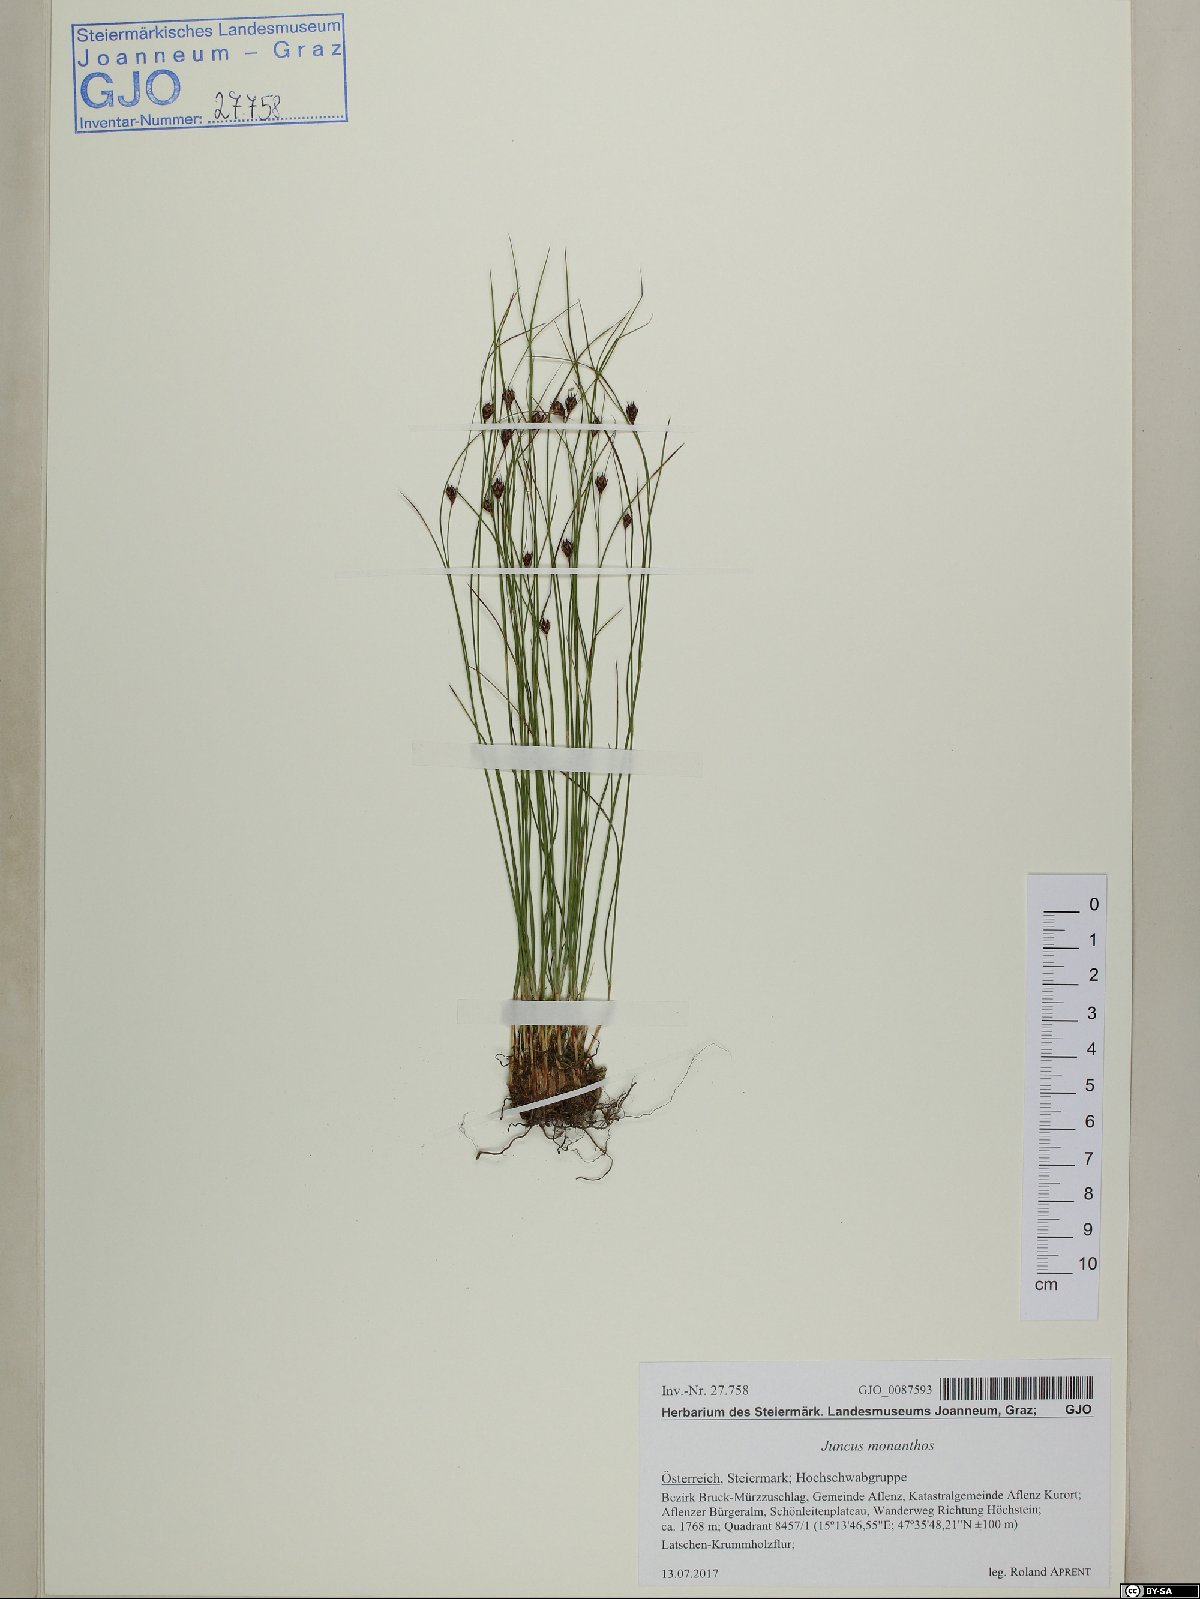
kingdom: Plantae
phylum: Tracheophyta
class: Liliopsida
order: Poales
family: Juncaceae
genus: Oreojuncus
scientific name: Oreojuncus monanthos
